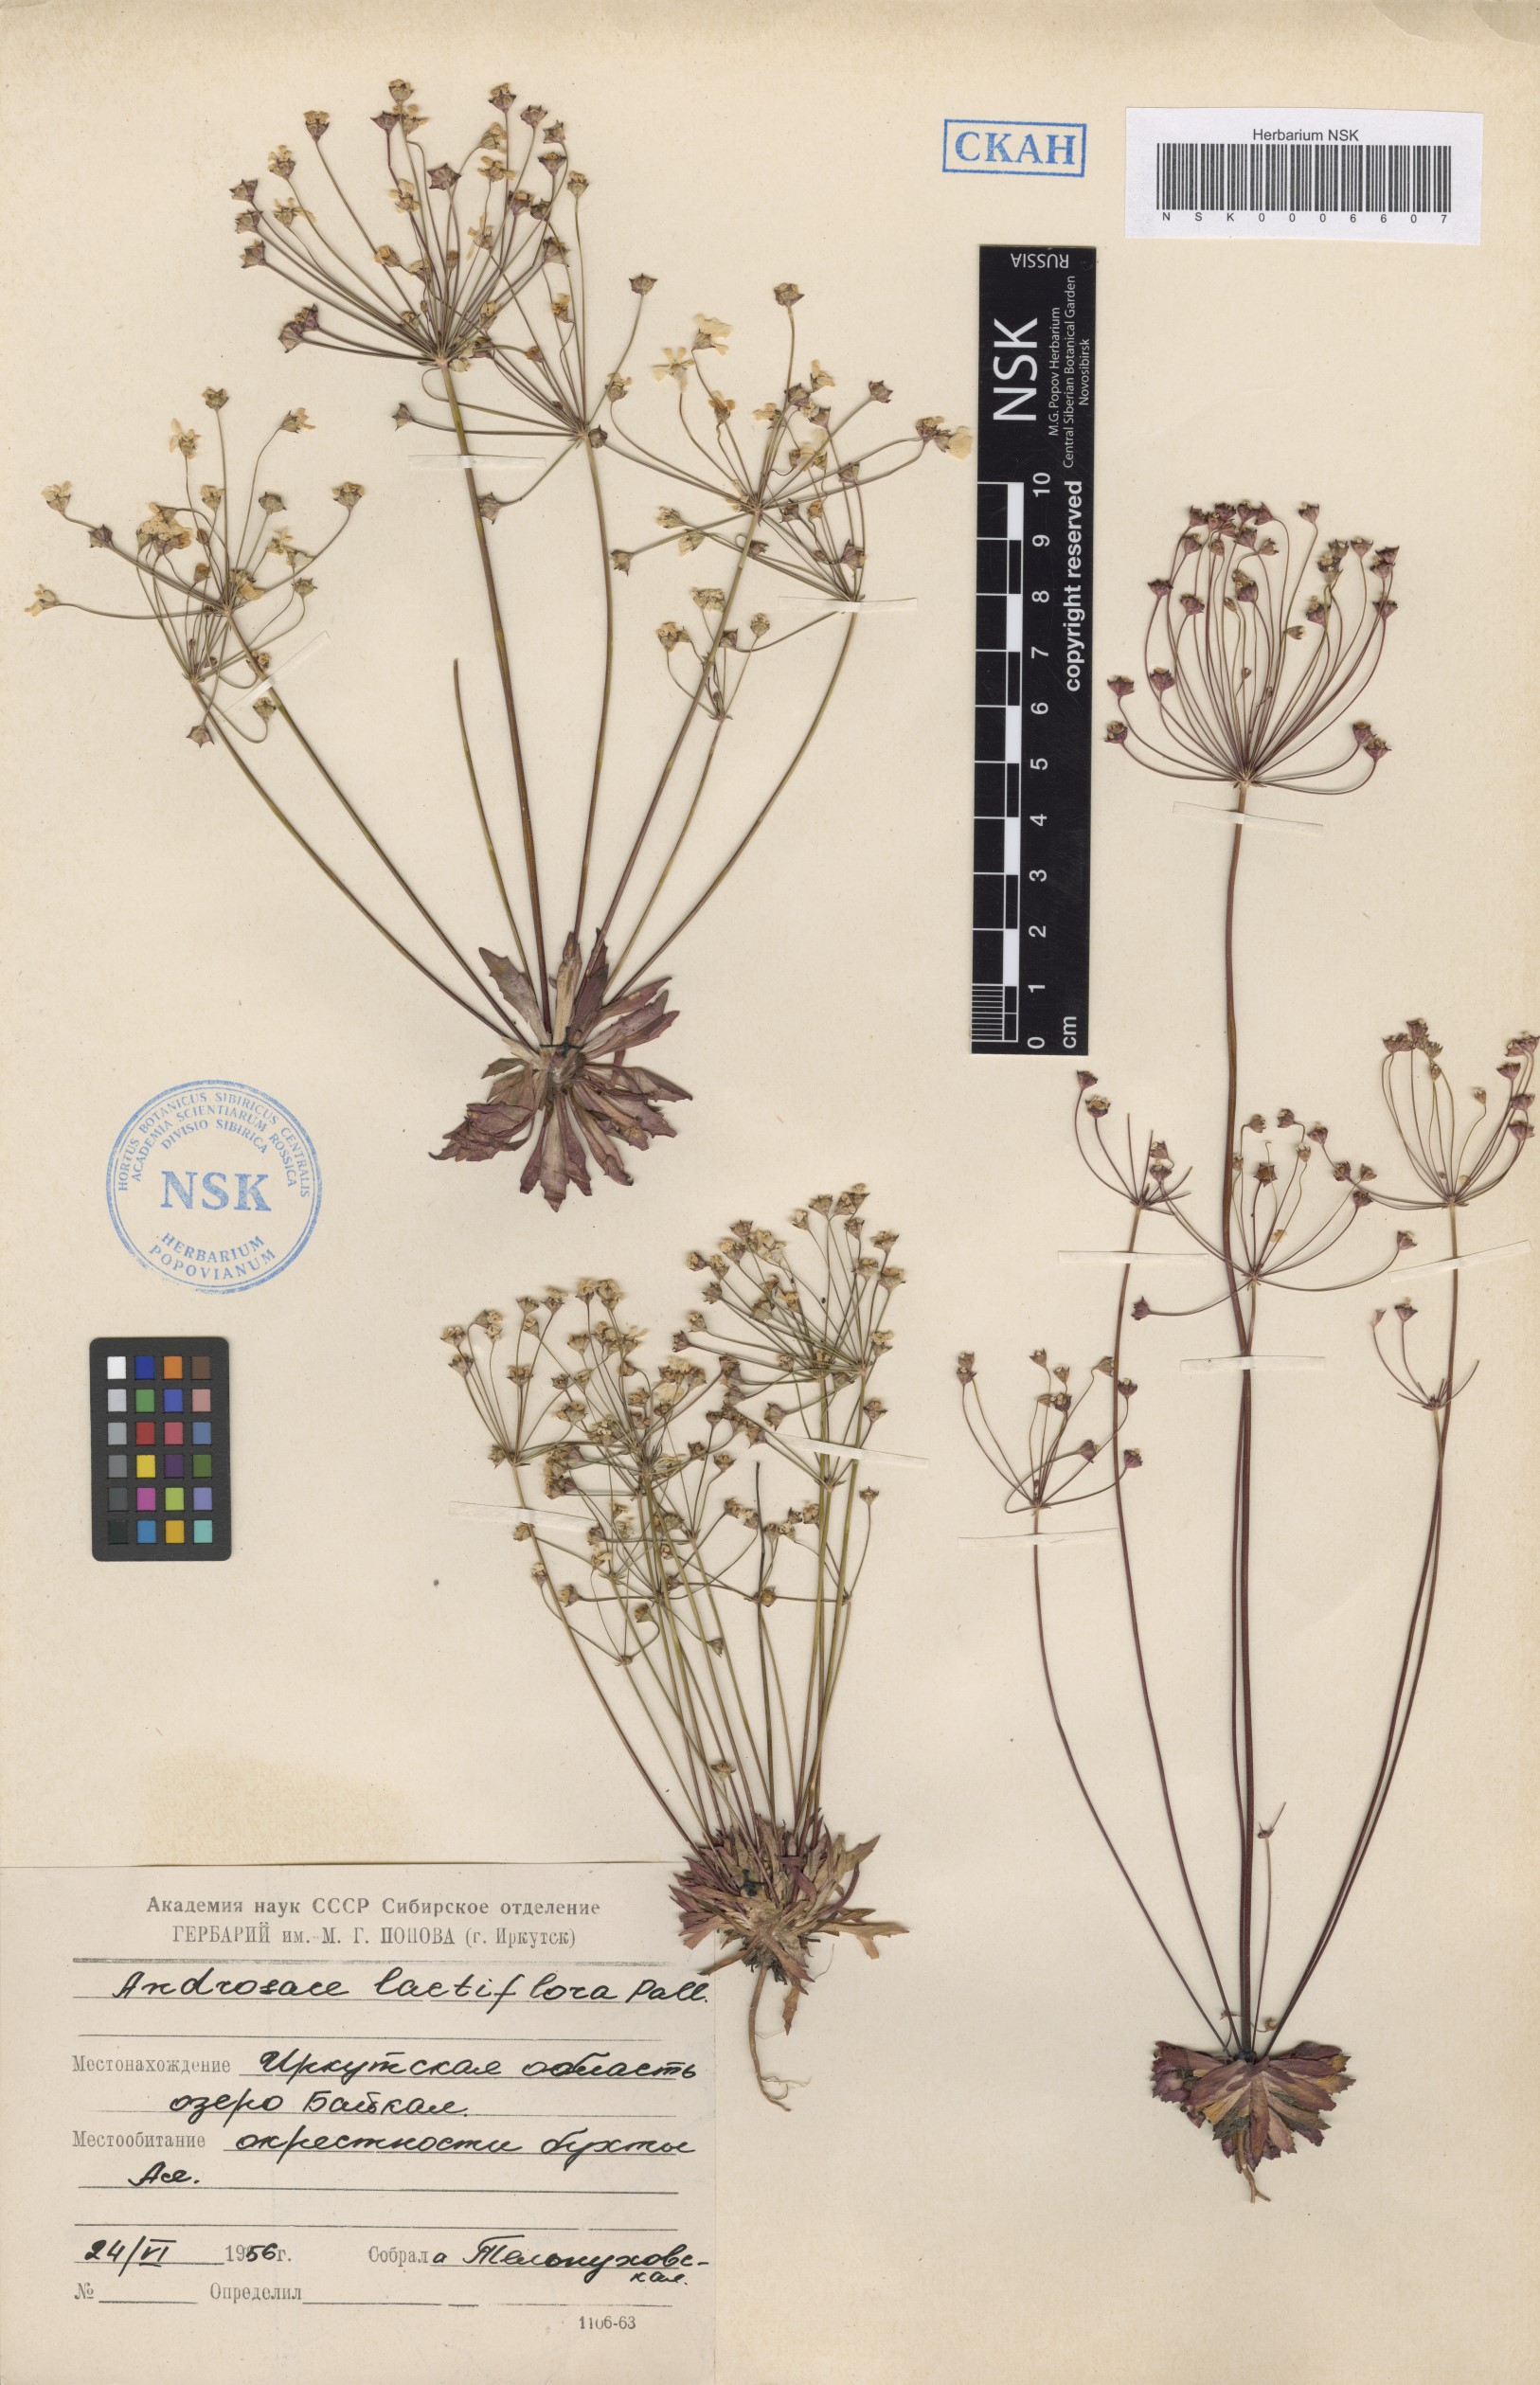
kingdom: Plantae
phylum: Tracheophyta
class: Magnoliopsida
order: Ericales
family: Primulaceae
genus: Androsace
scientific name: Androsace lactiflora
